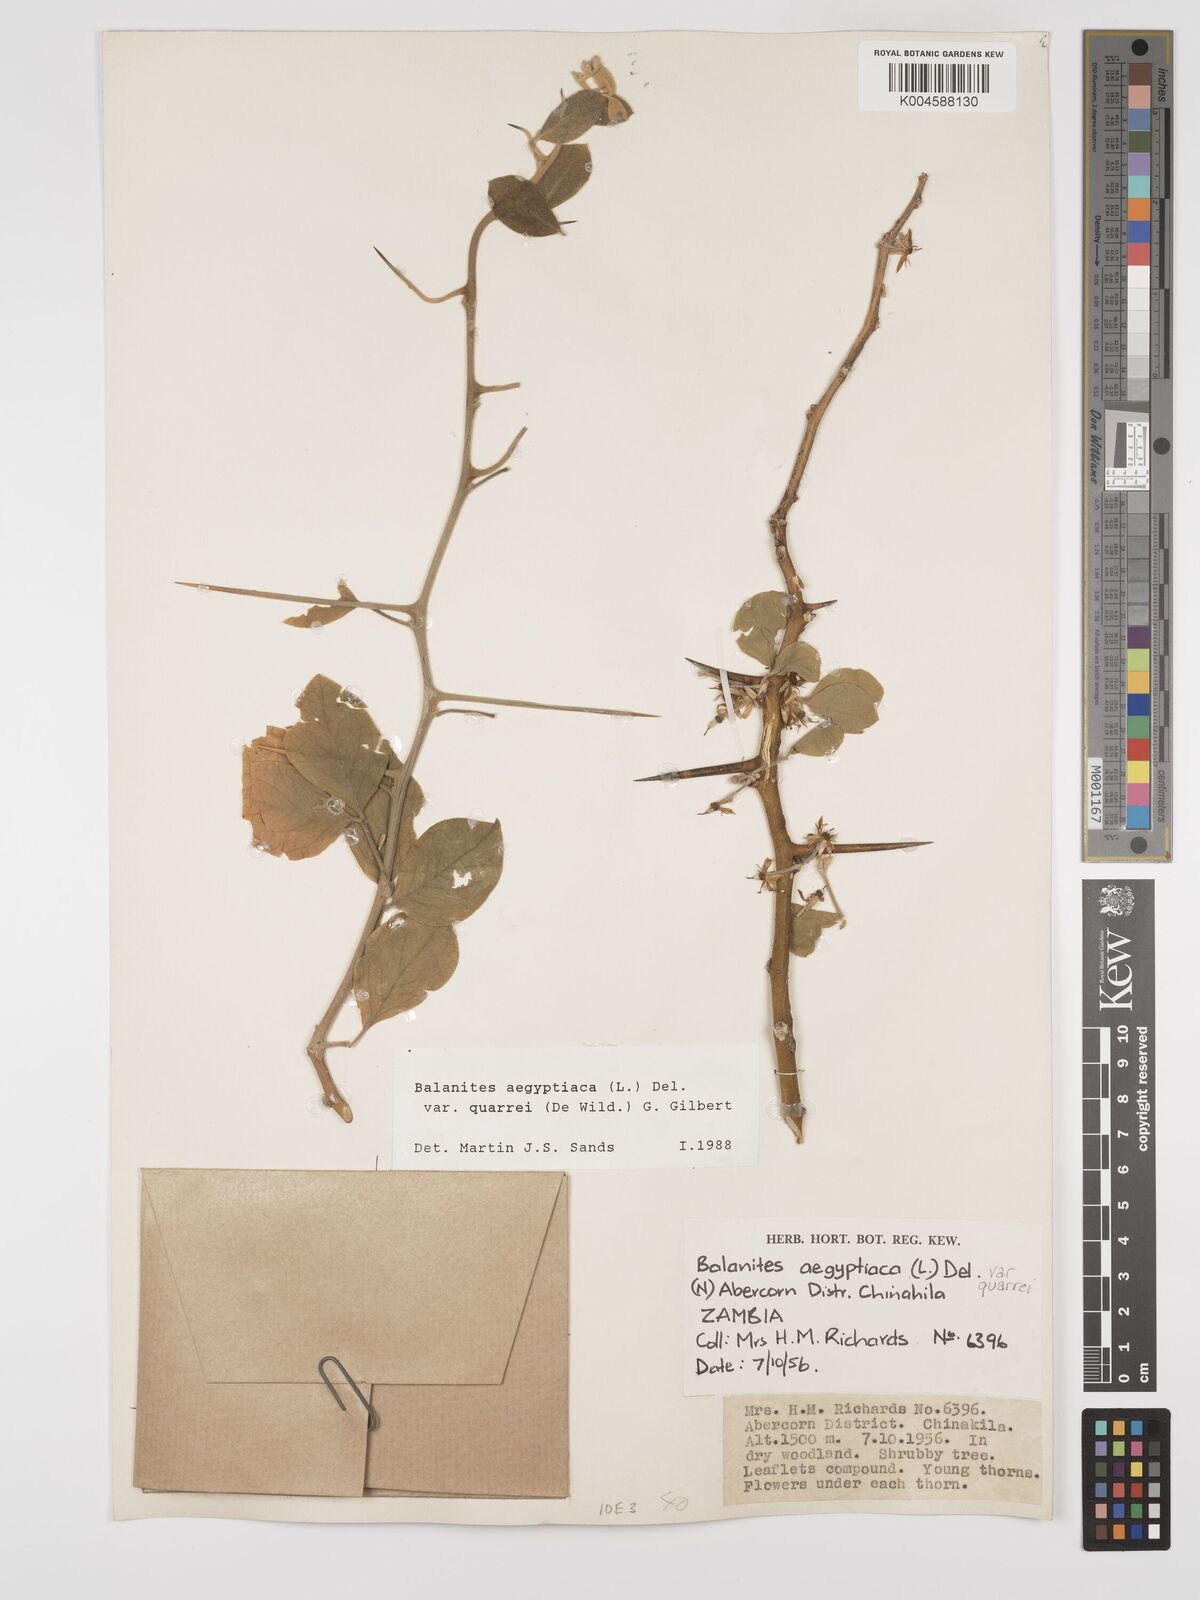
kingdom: Plantae
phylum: Tracheophyta
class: Magnoliopsida
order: Zygophyllales
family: Zygophyllaceae
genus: Balanites
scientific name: Balanites aegyptiaca
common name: Balanites
